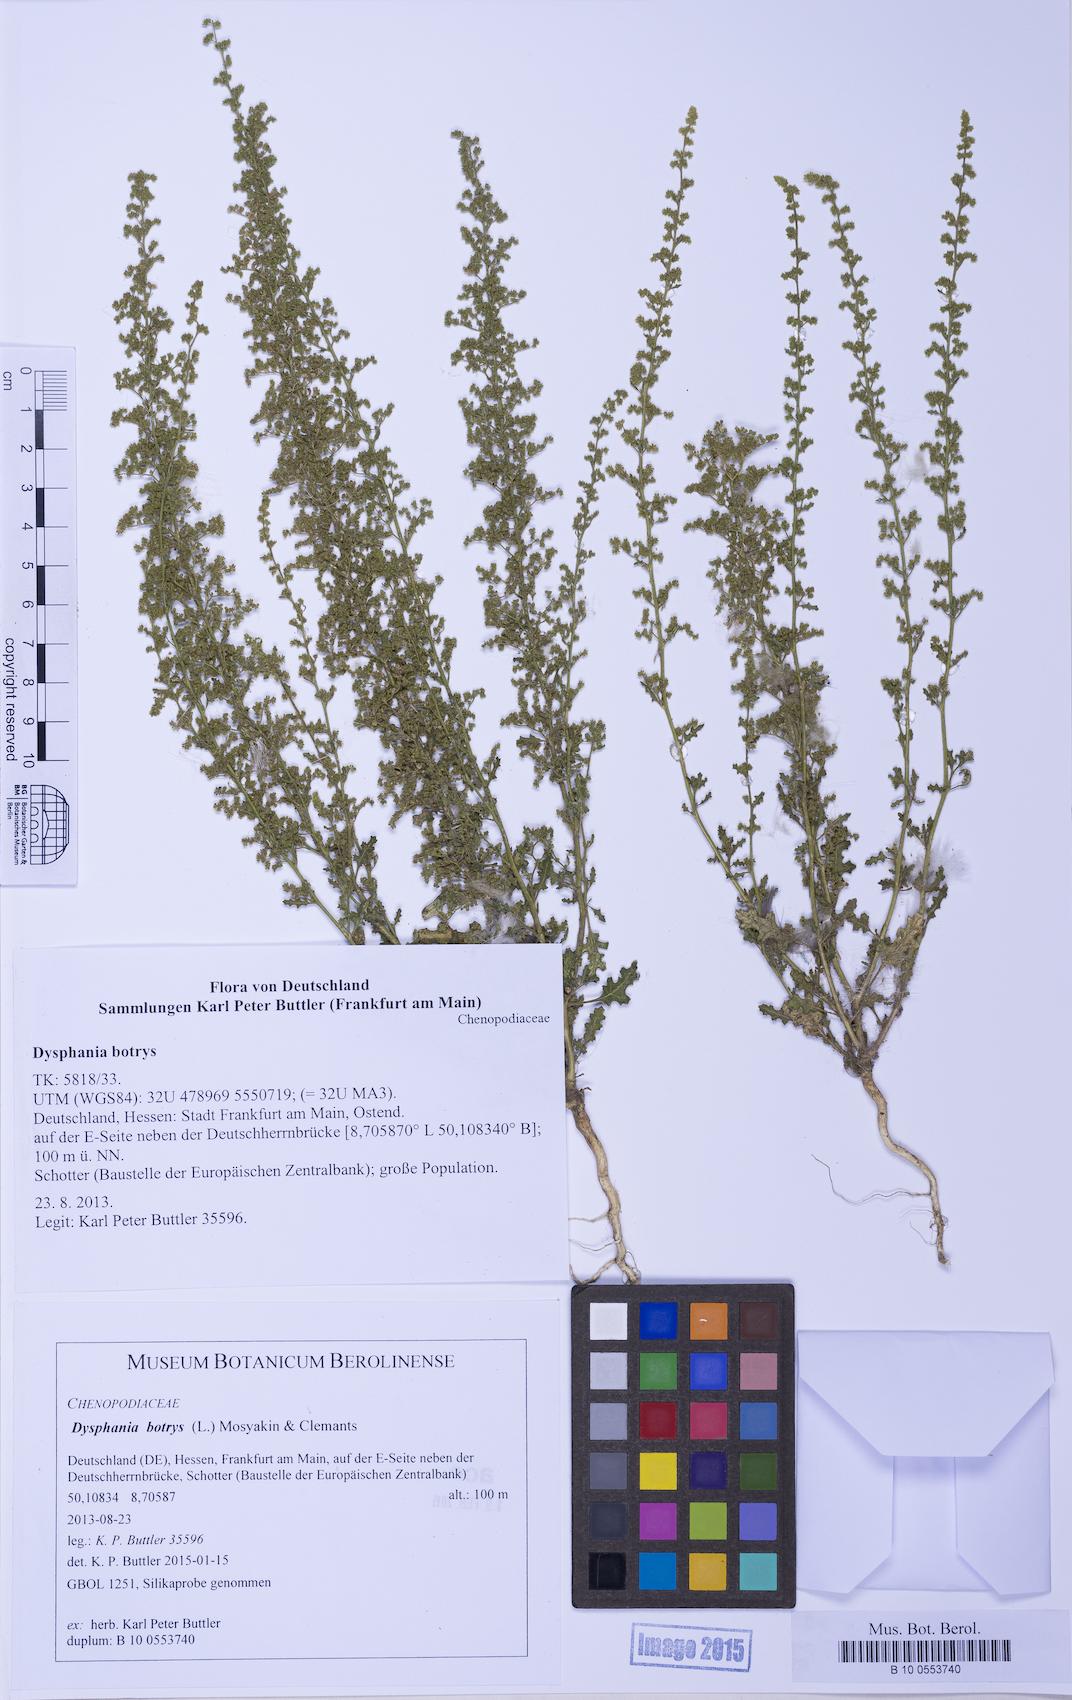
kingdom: Plantae
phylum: Tracheophyta
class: Magnoliopsida
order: Caryophyllales
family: Amaranthaceae
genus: Dysphania
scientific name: Dysphania botrys
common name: Feather-geranium
